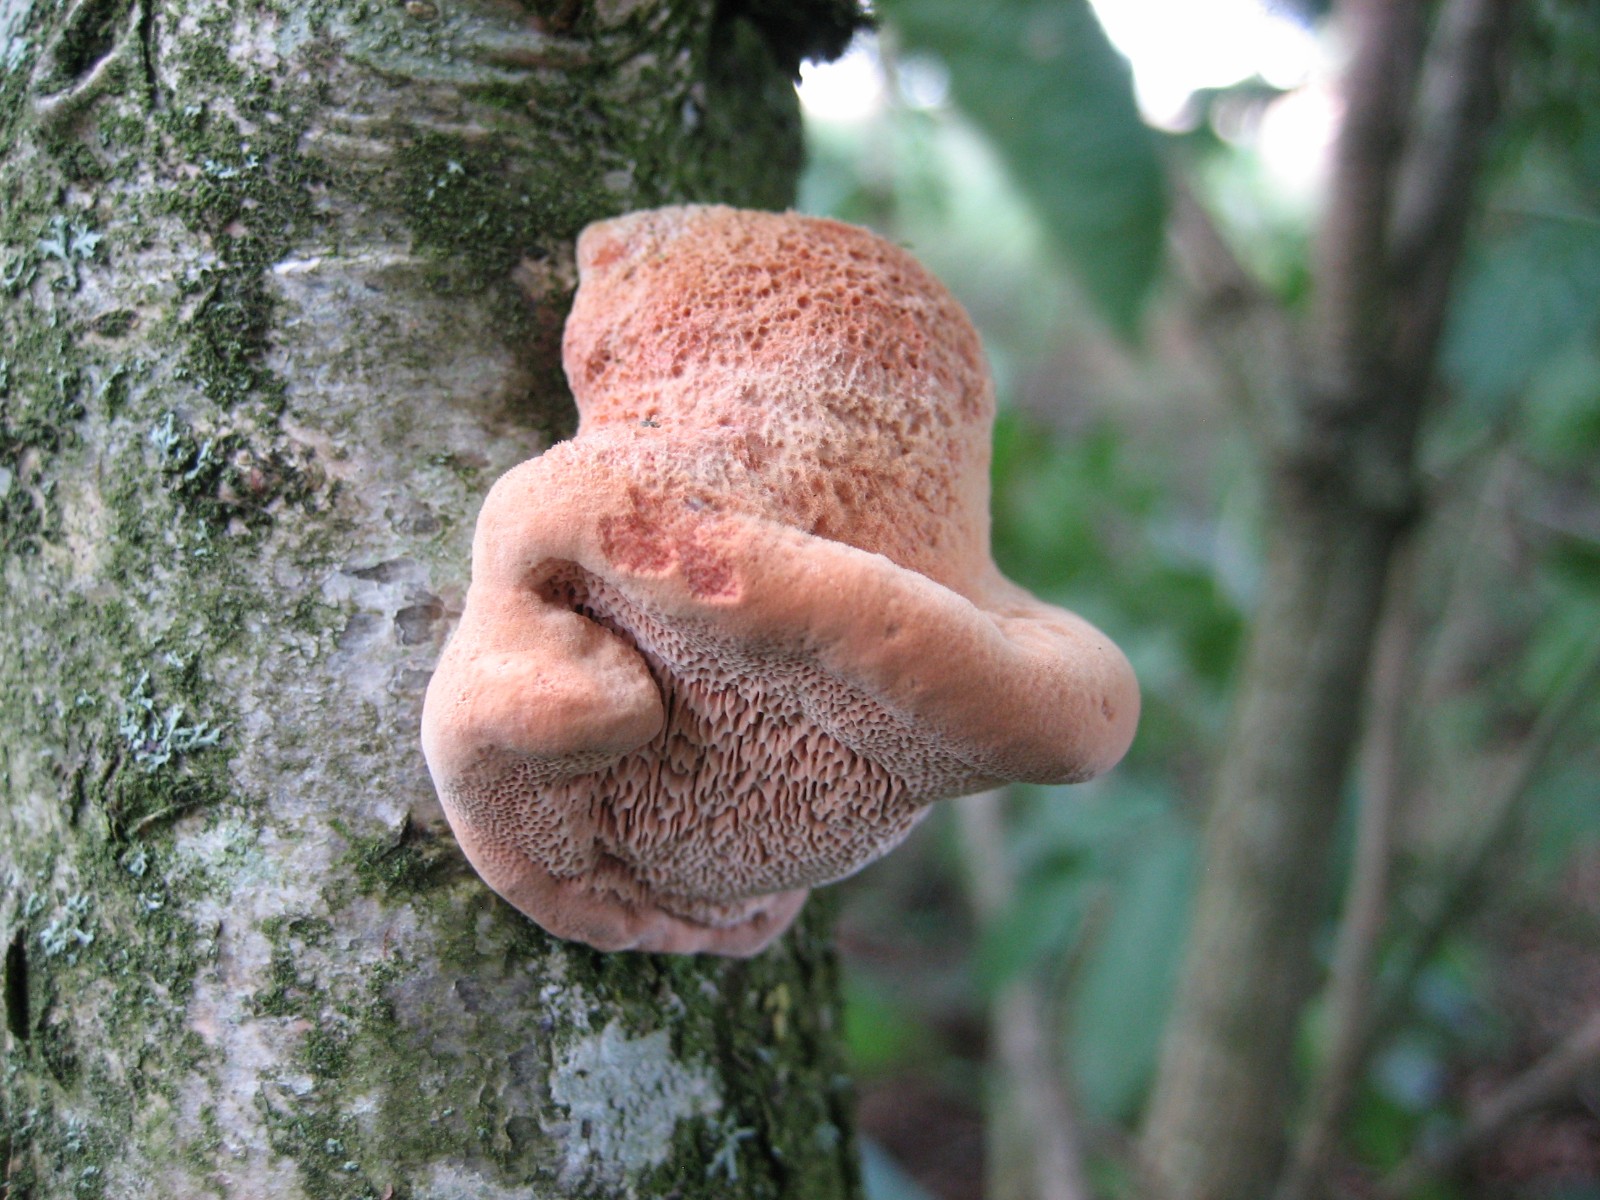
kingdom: Fungi
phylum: Basidiomycota
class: Agaricomycetes
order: Polyporales
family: Phanerochaetaceae
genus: Hapalopilus
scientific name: Hapalopilus rutilans
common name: rødlig okkerporesvamp
